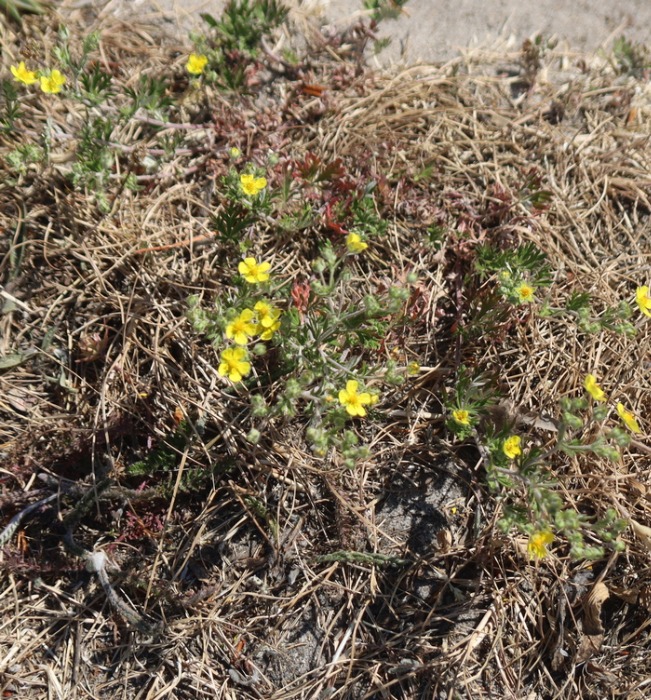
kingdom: Plantae
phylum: Tracheophyta
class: Magnoliopsida
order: Rosales
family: Rosaceae
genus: Potentilla
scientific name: Potentilla argentea
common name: Sølv-potentil
